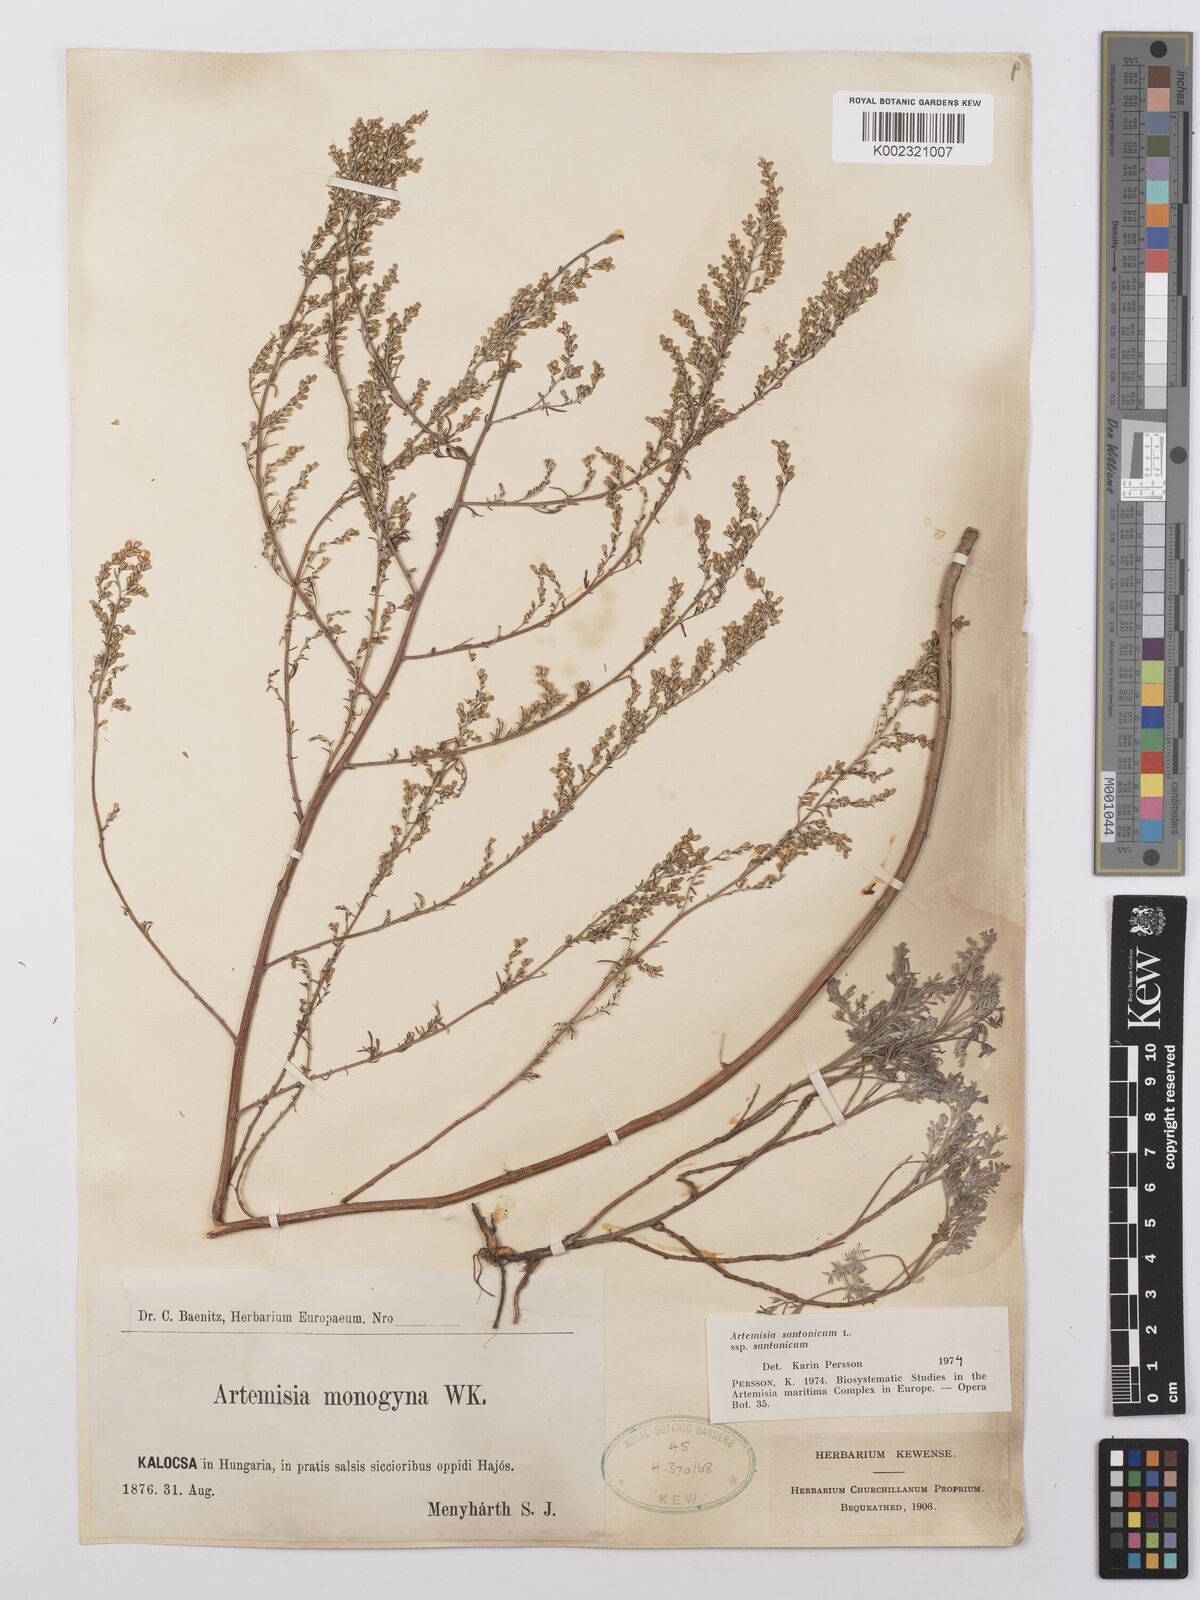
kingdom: Plantae
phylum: Tracheophyta
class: Magnoliopsida
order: Asterales
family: Asteraceae
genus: Artemisia
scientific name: Artemisia santonicum
